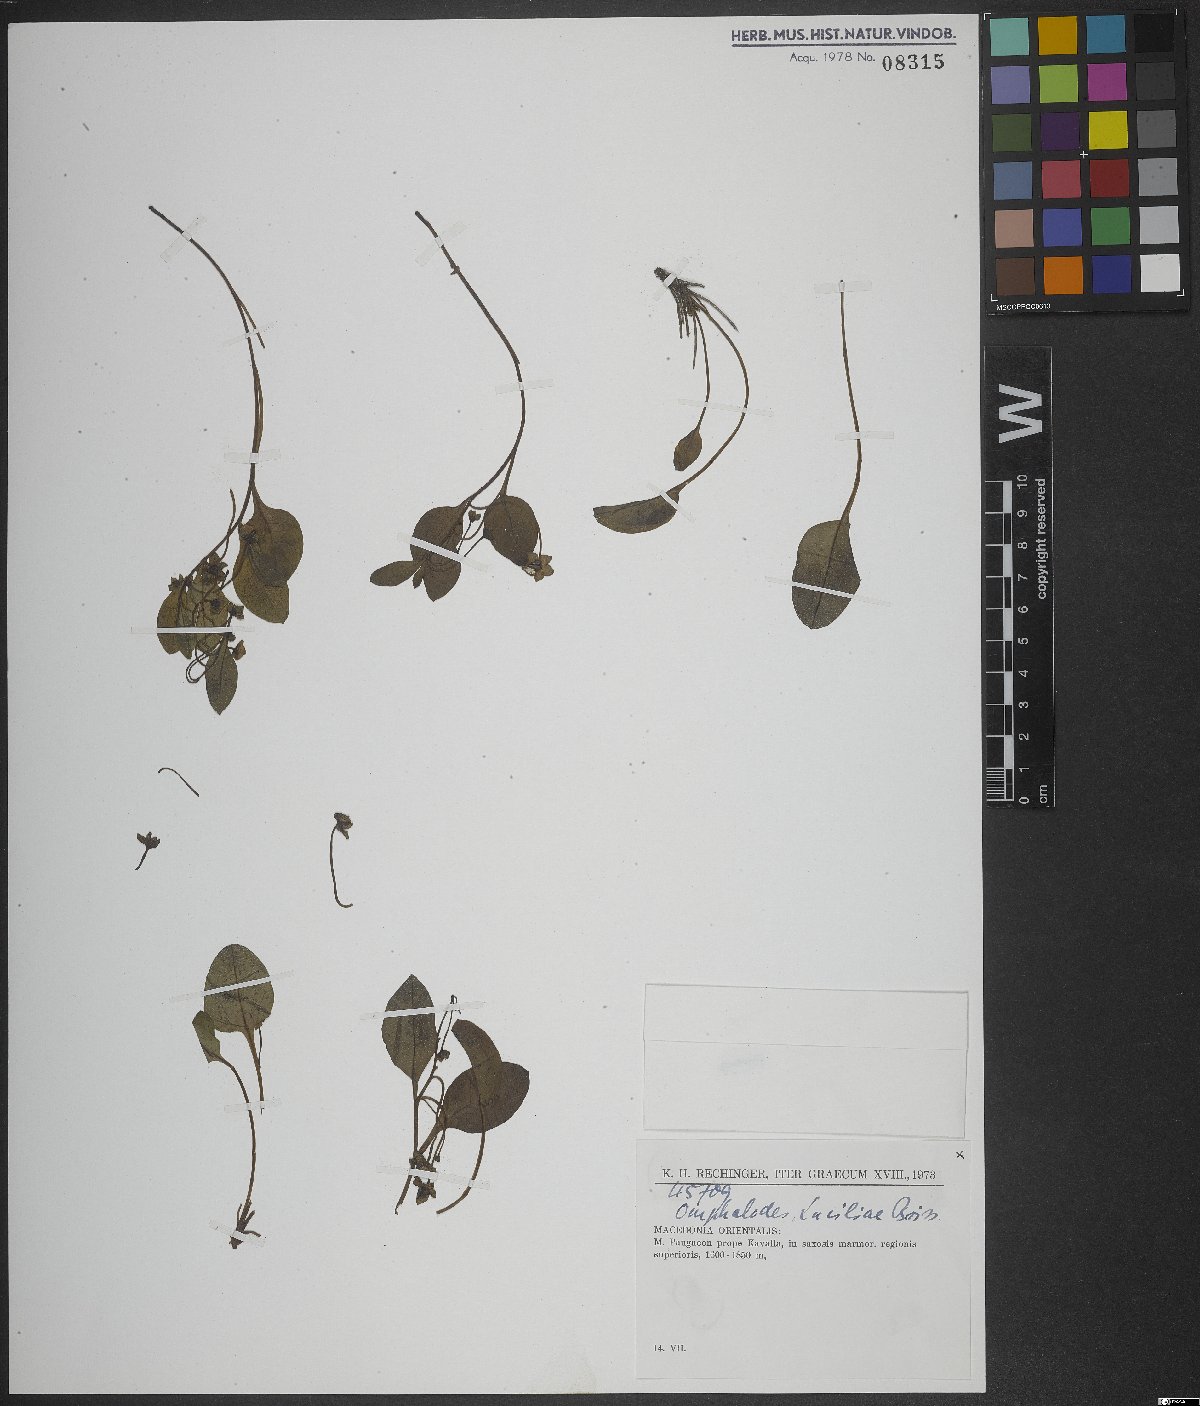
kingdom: Plantae
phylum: Tracheophyta
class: Magnoliopsida
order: Boraginales
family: Boraginaceae
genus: Omphalodes
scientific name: Omphalodes luciliae
